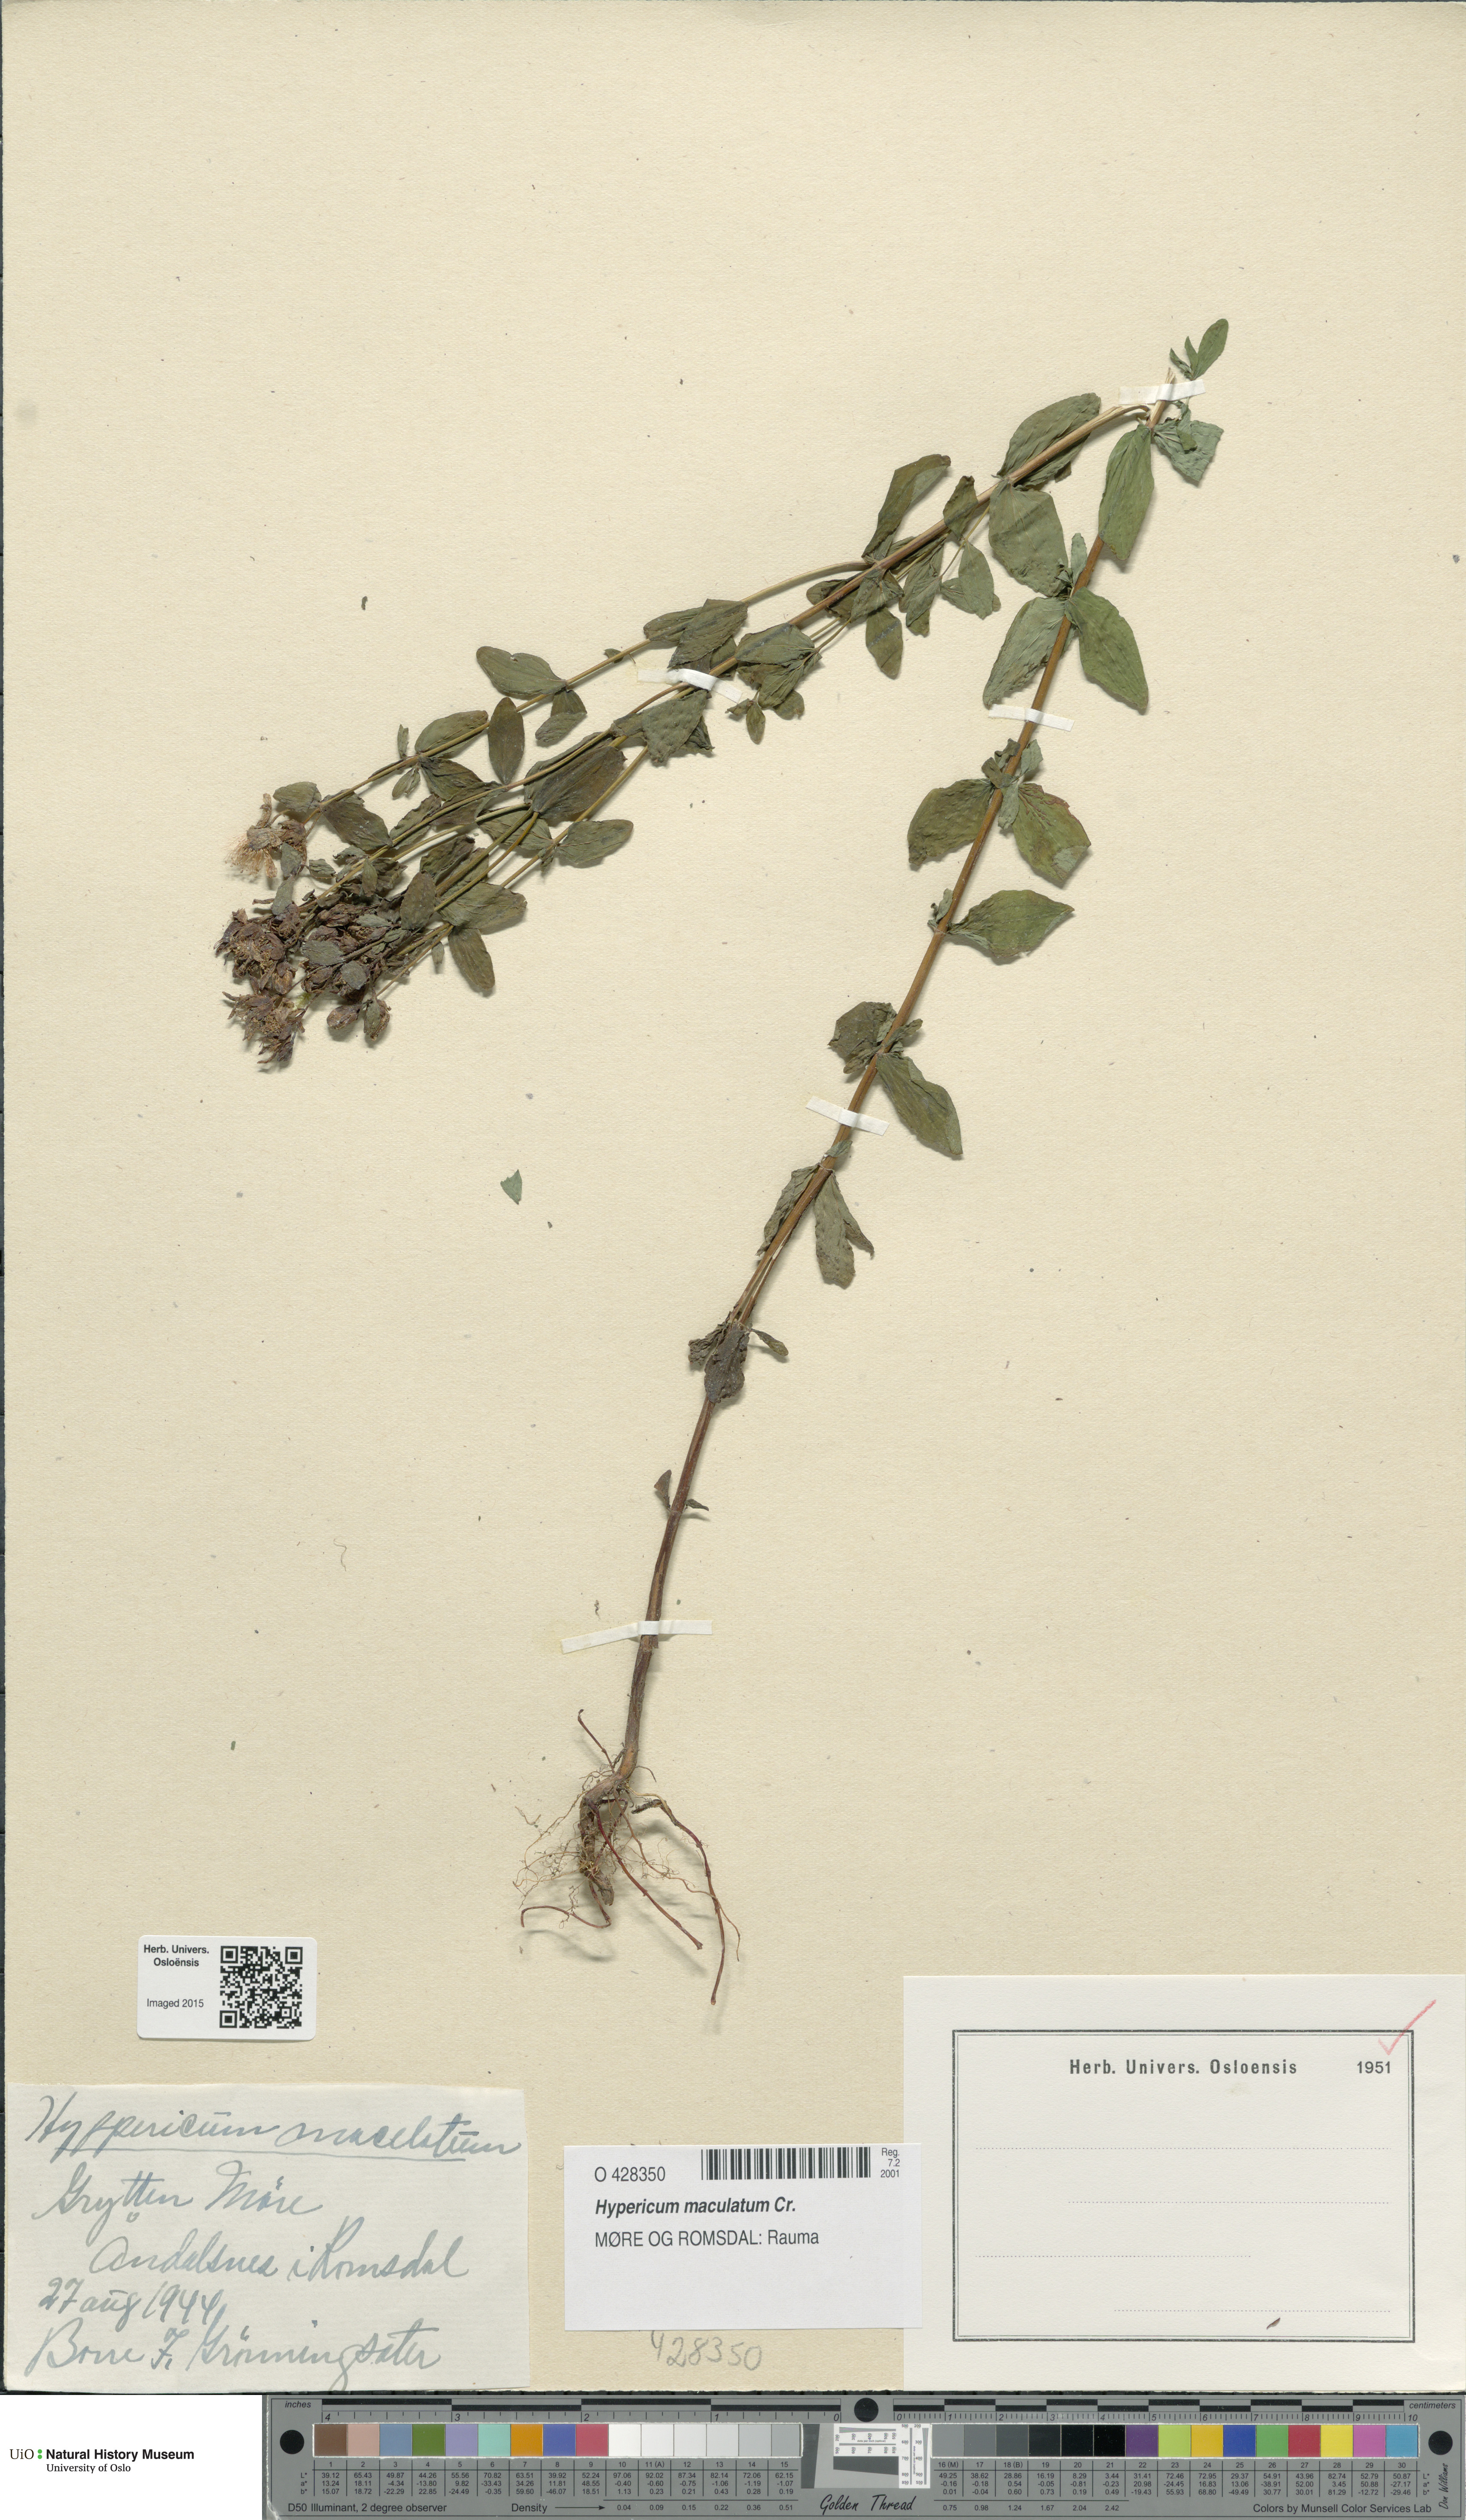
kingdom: Plantae
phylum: Tracheophyta
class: Magnoliopsida
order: Malpighiales
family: Hypericaceae
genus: Hypericum
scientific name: Hypericum maculatum
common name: Imperforate st. john's-wort
